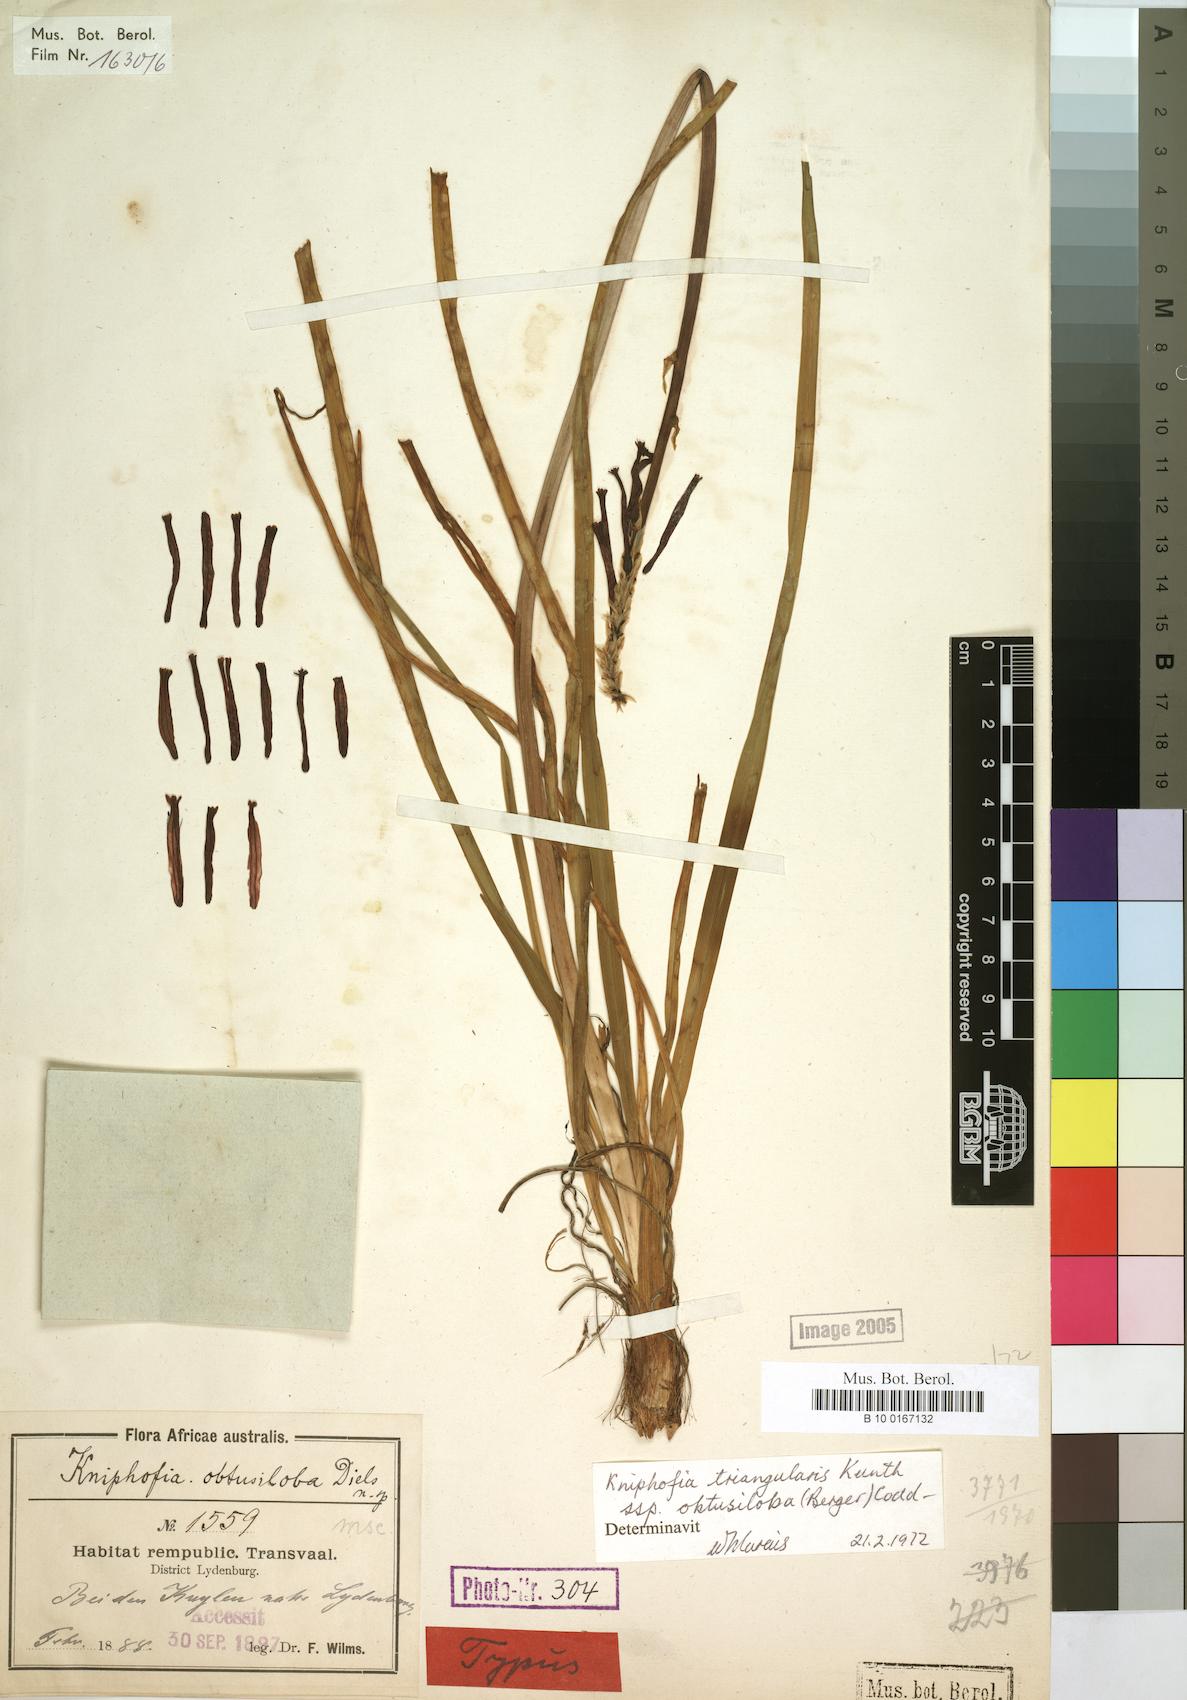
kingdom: Plantae
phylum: Tracheophyta
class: Liliopsida
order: Asparagales
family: Asphodelaceae
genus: Kniphofia
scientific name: Kniphofia triangularis
